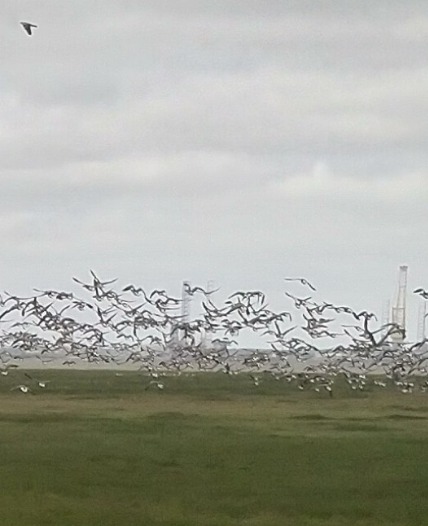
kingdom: Animalia
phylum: Chordata
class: Aves
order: Anseriformes
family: Anatidae
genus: Branta
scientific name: Branta bernicla
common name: Knortegås
